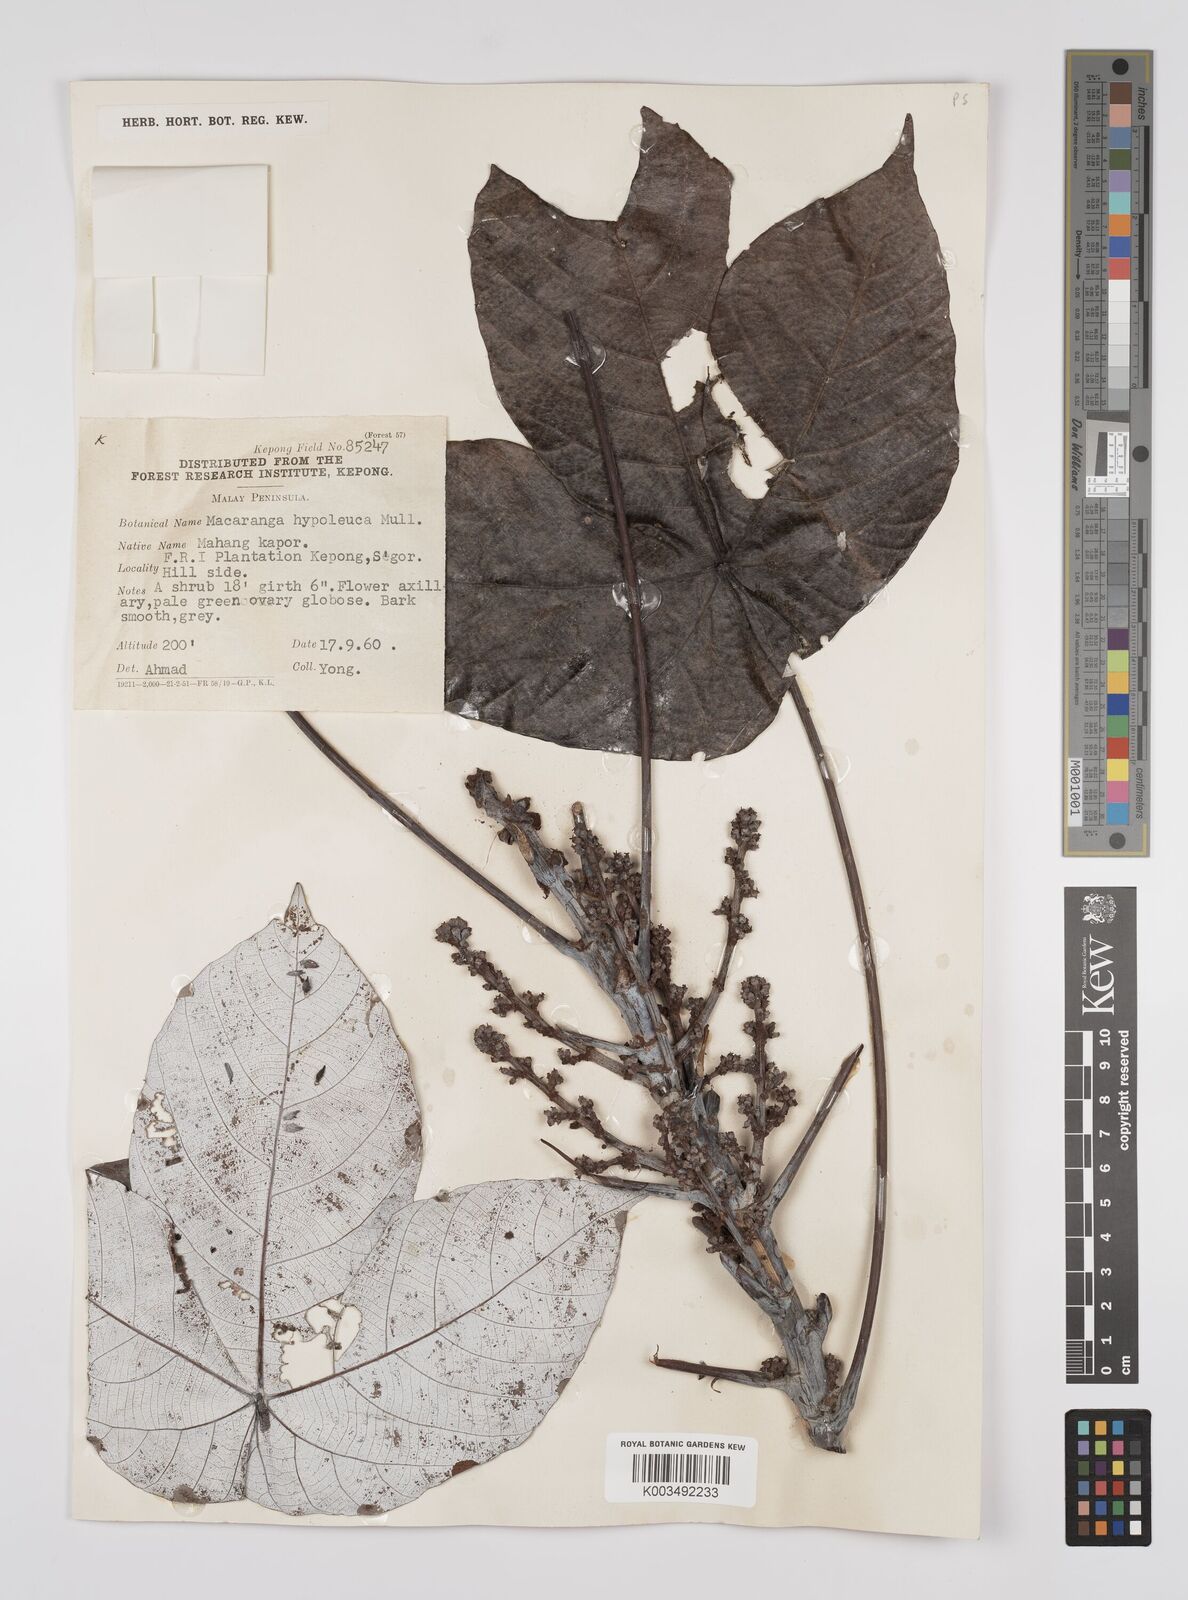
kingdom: Plantae
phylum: Tracheophyta
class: Magnoliopsida
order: Malpighiales
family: Euphorbiaceae
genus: Macaranga
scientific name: Macaranga hypoleuca
